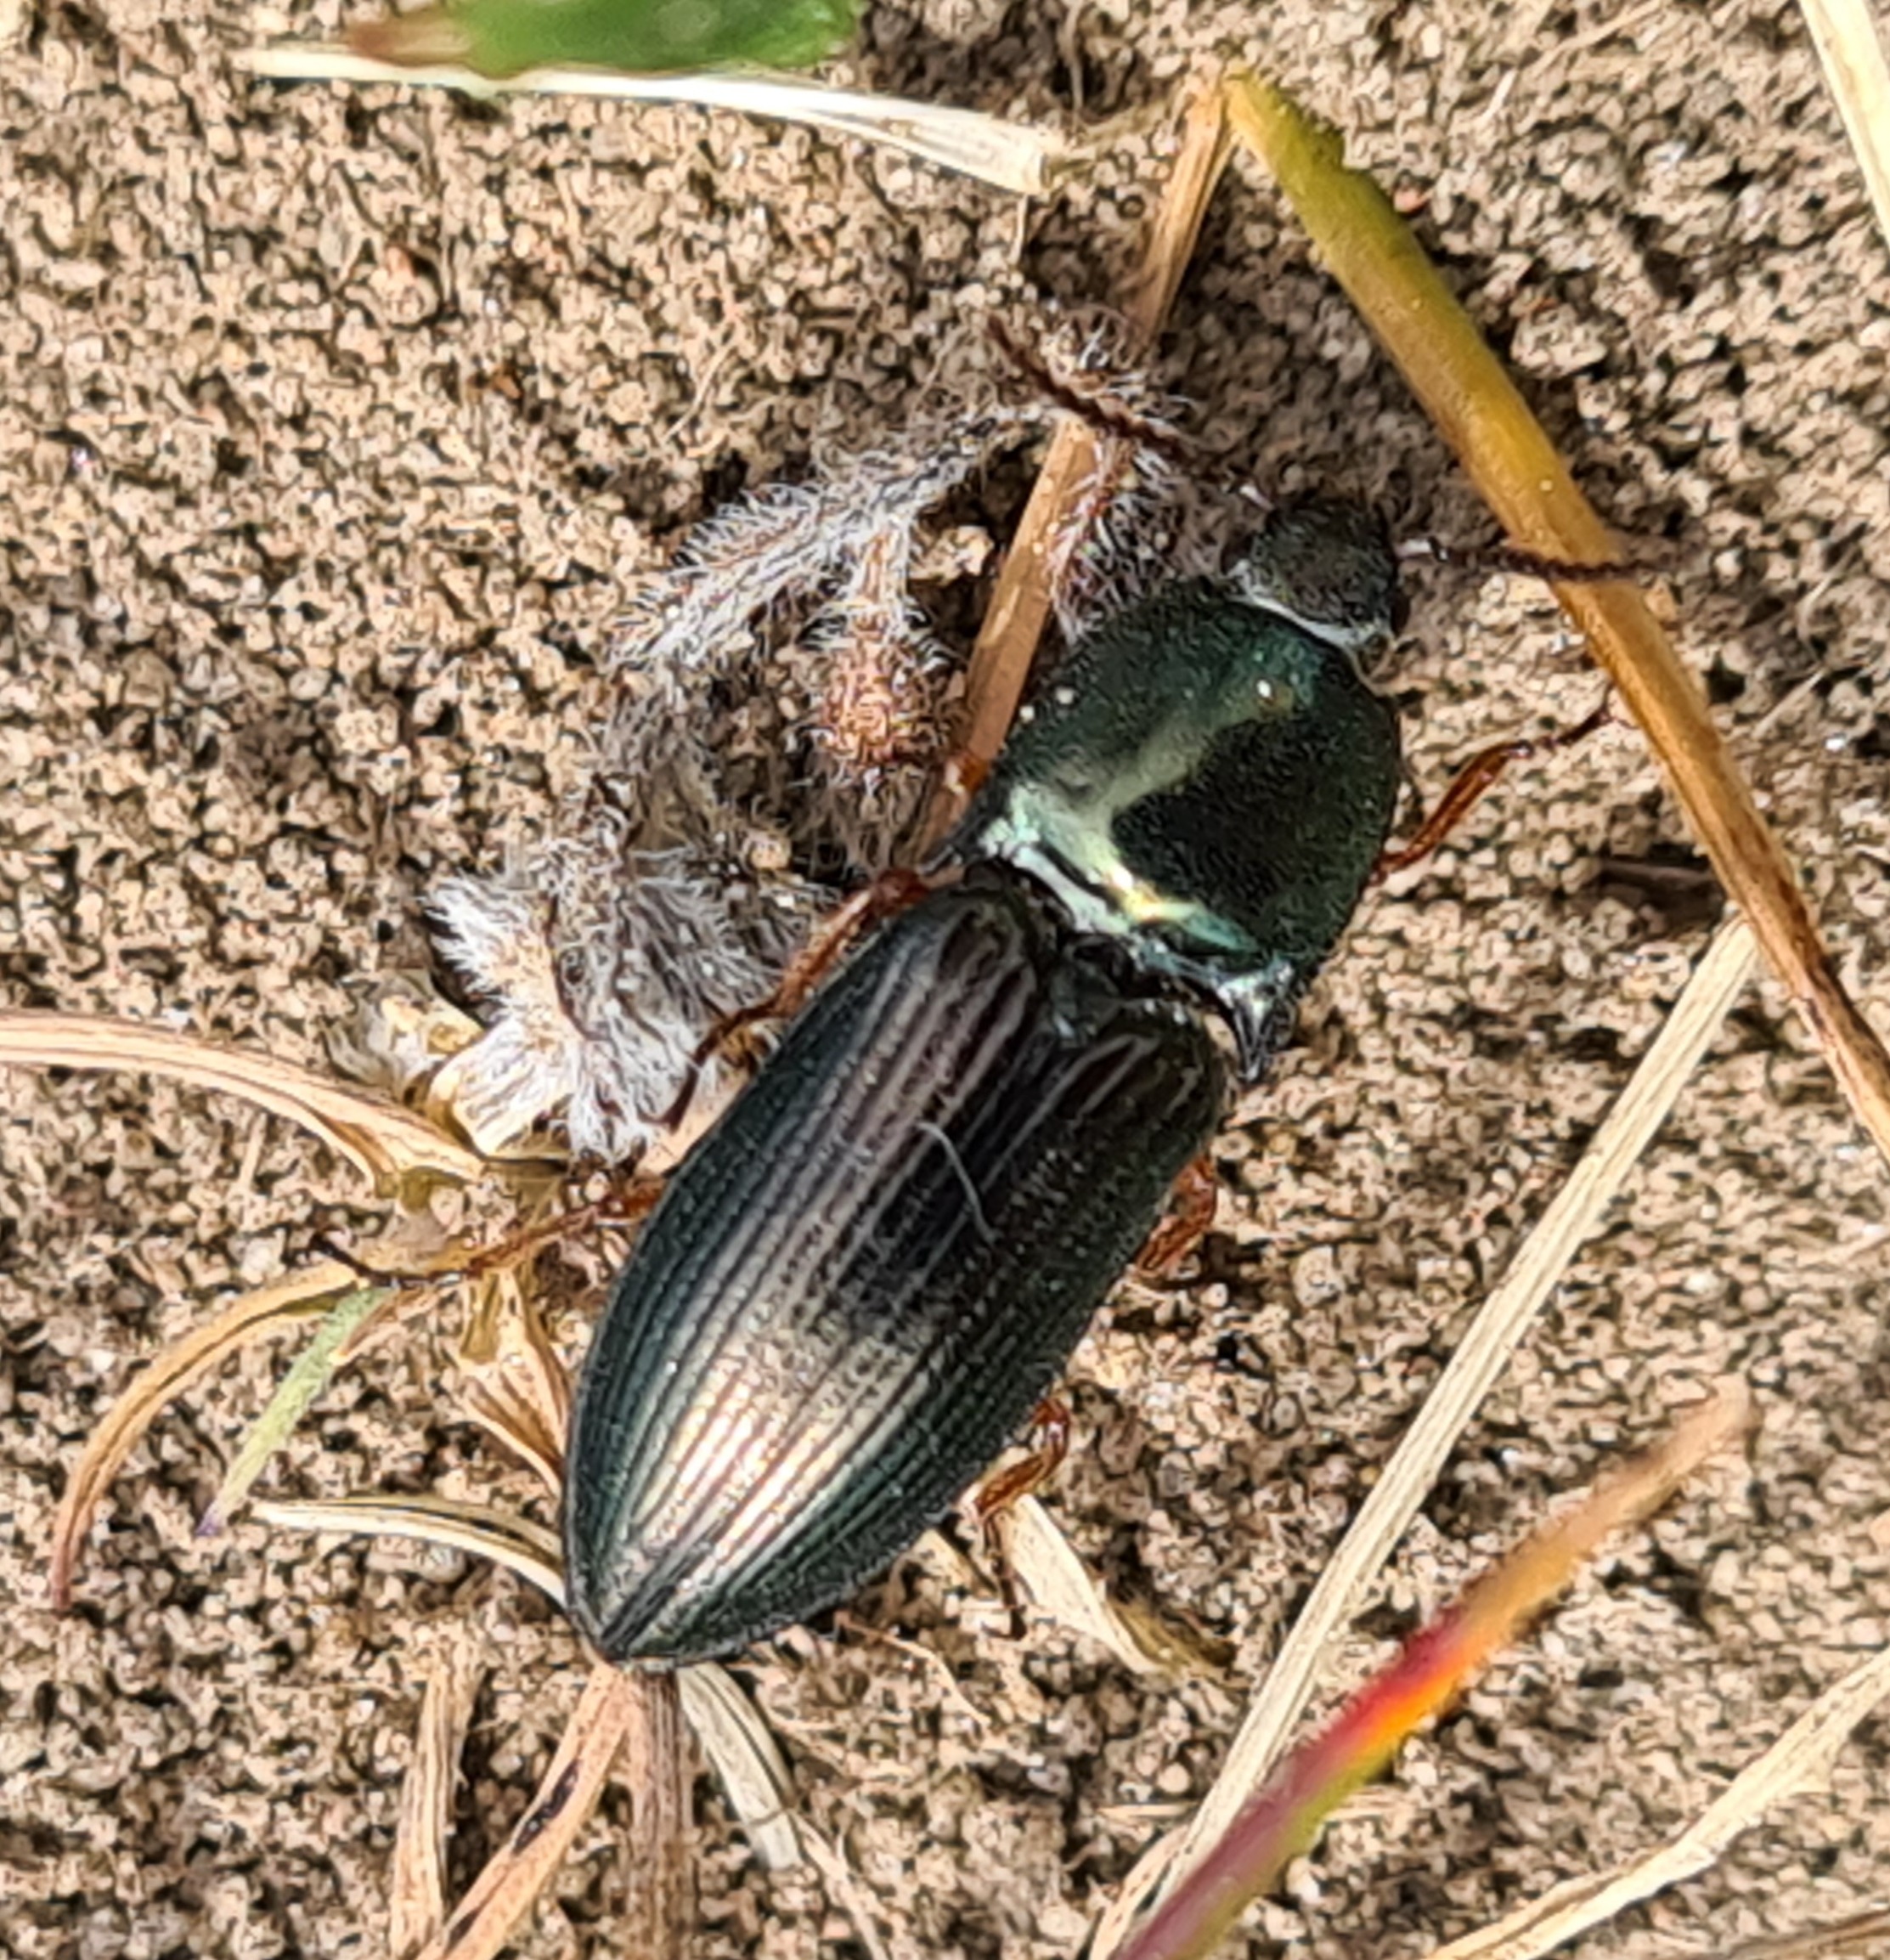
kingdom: Animalia
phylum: Arthropoda
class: Insecta
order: Coleoptera
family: Elateridae
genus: Selatosomus
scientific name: Selatosomus aeneus
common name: Kobbersmælder
